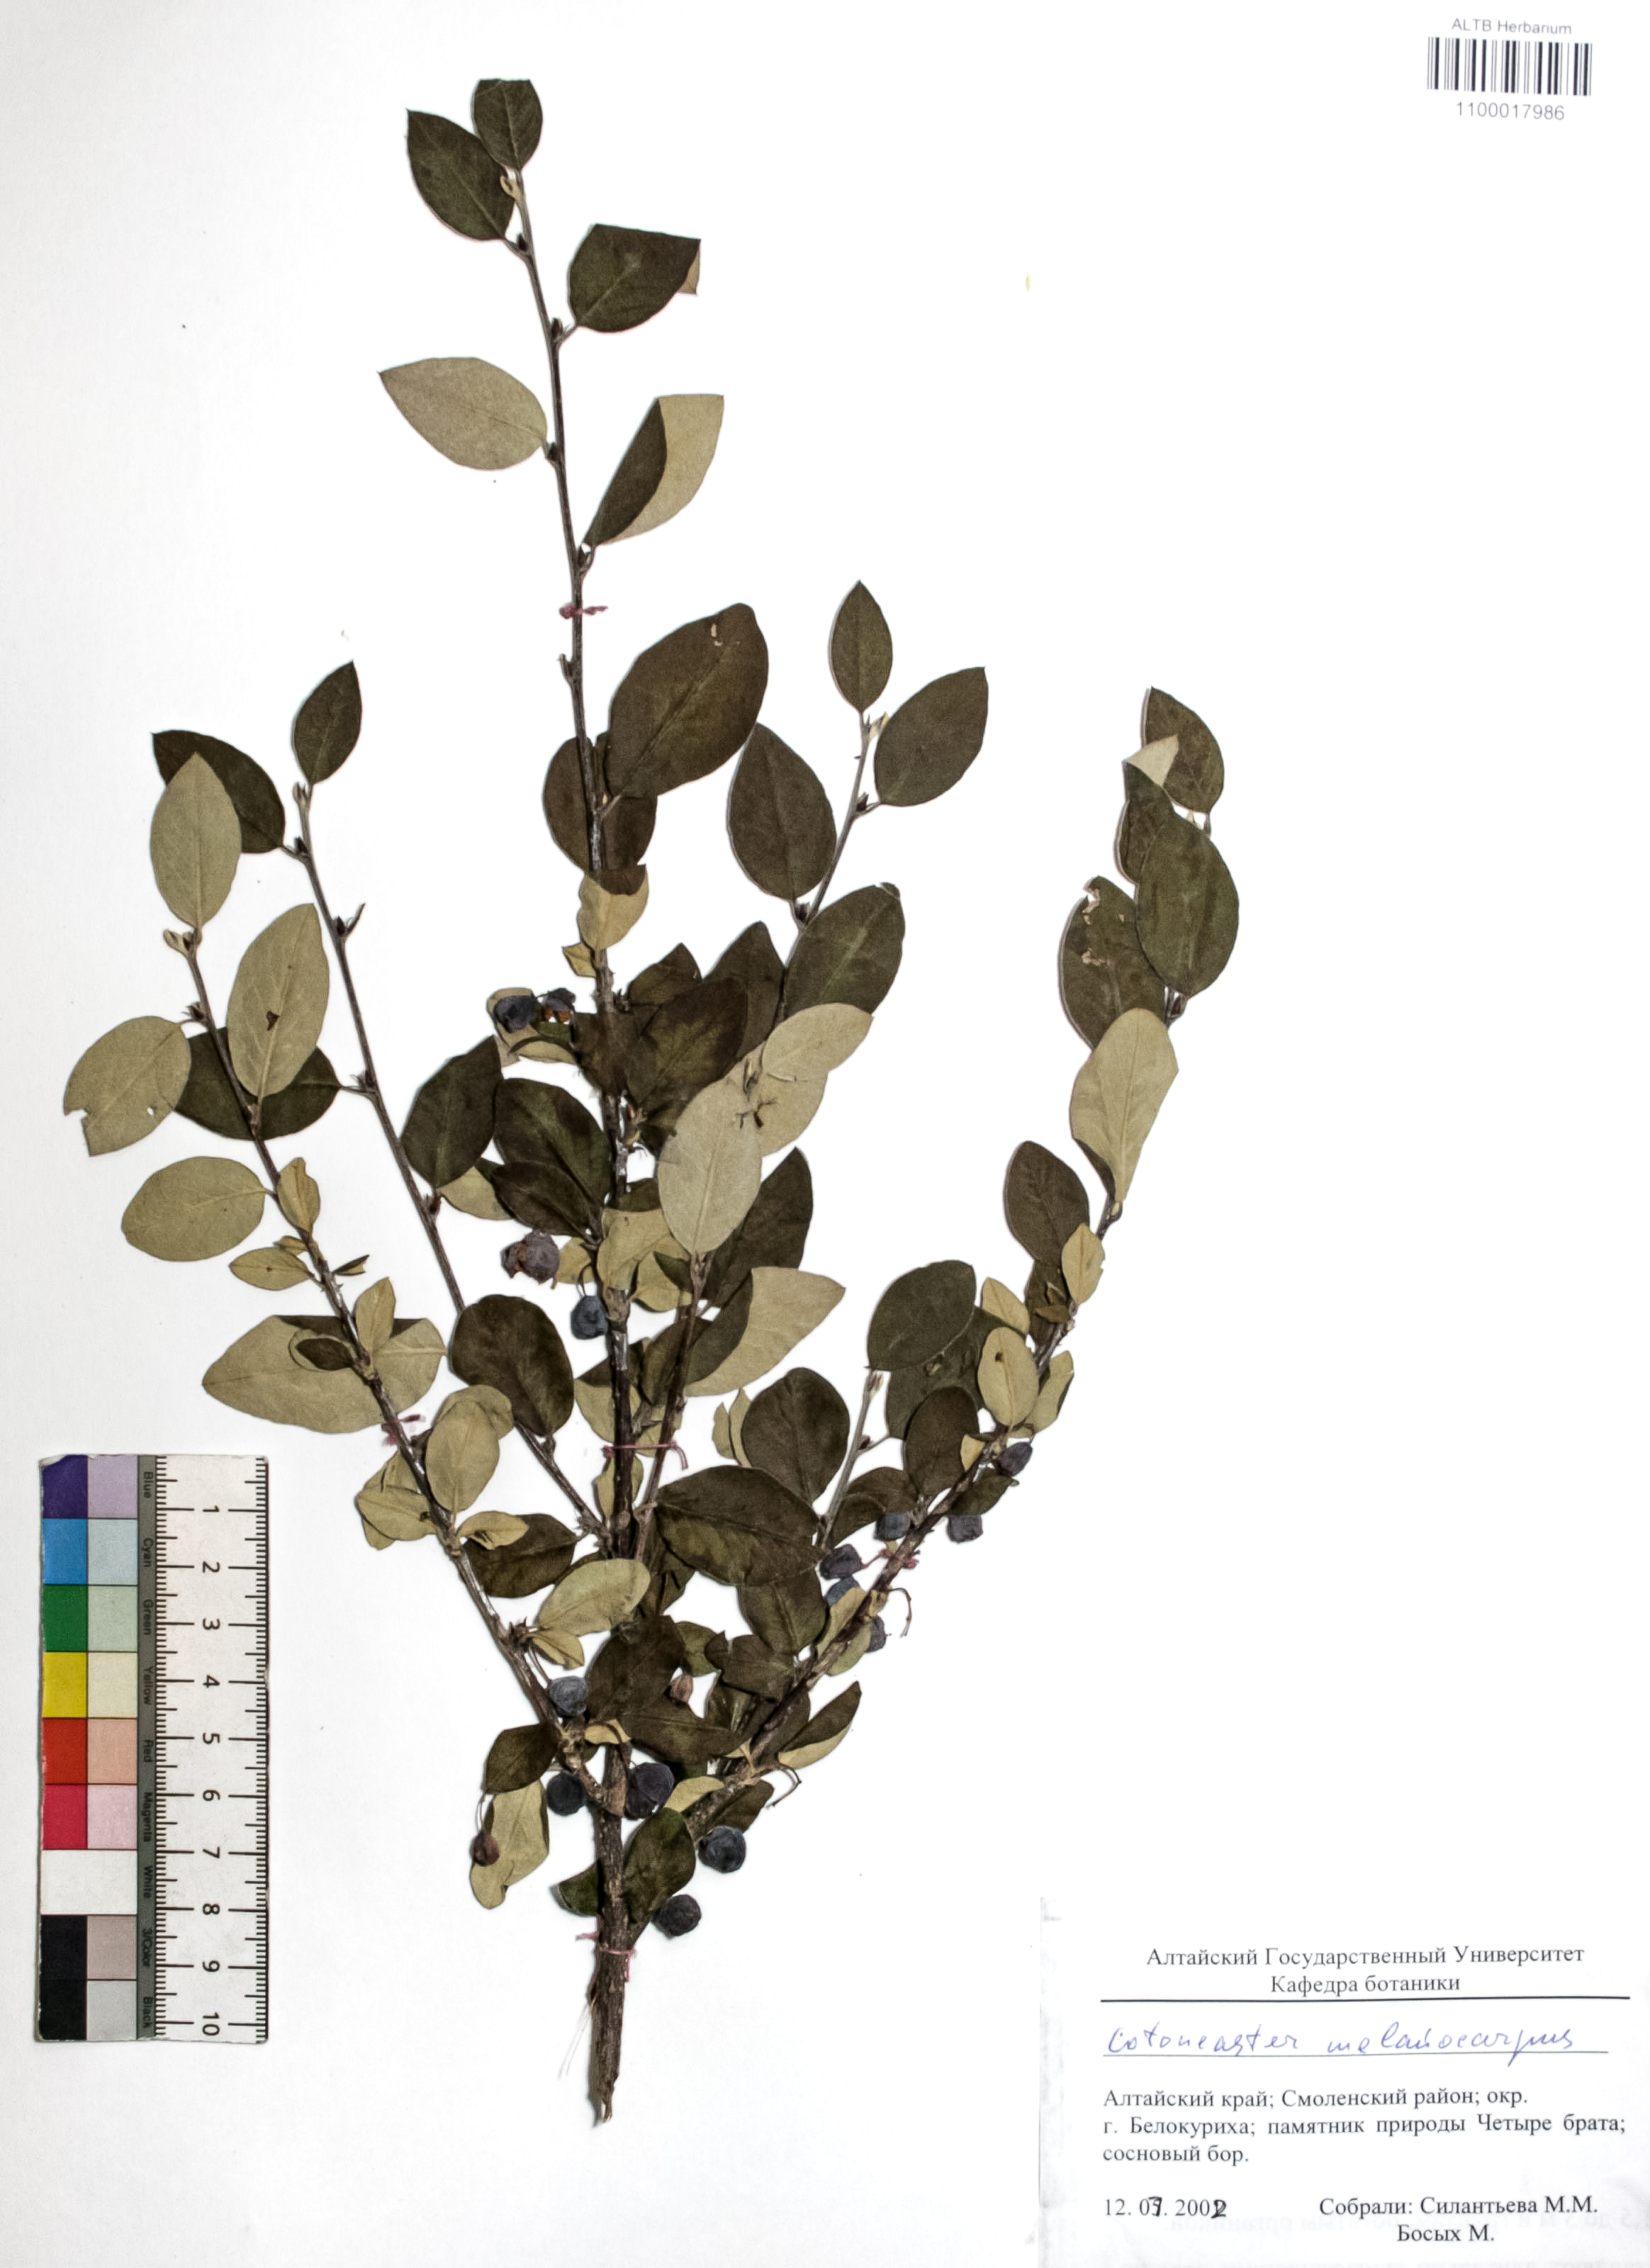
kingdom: Plantae
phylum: Tracheophyta
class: Magnoliopsida
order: Rosales
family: Rosaceae
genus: Cotoneaster
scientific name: Cotoneaster niger
